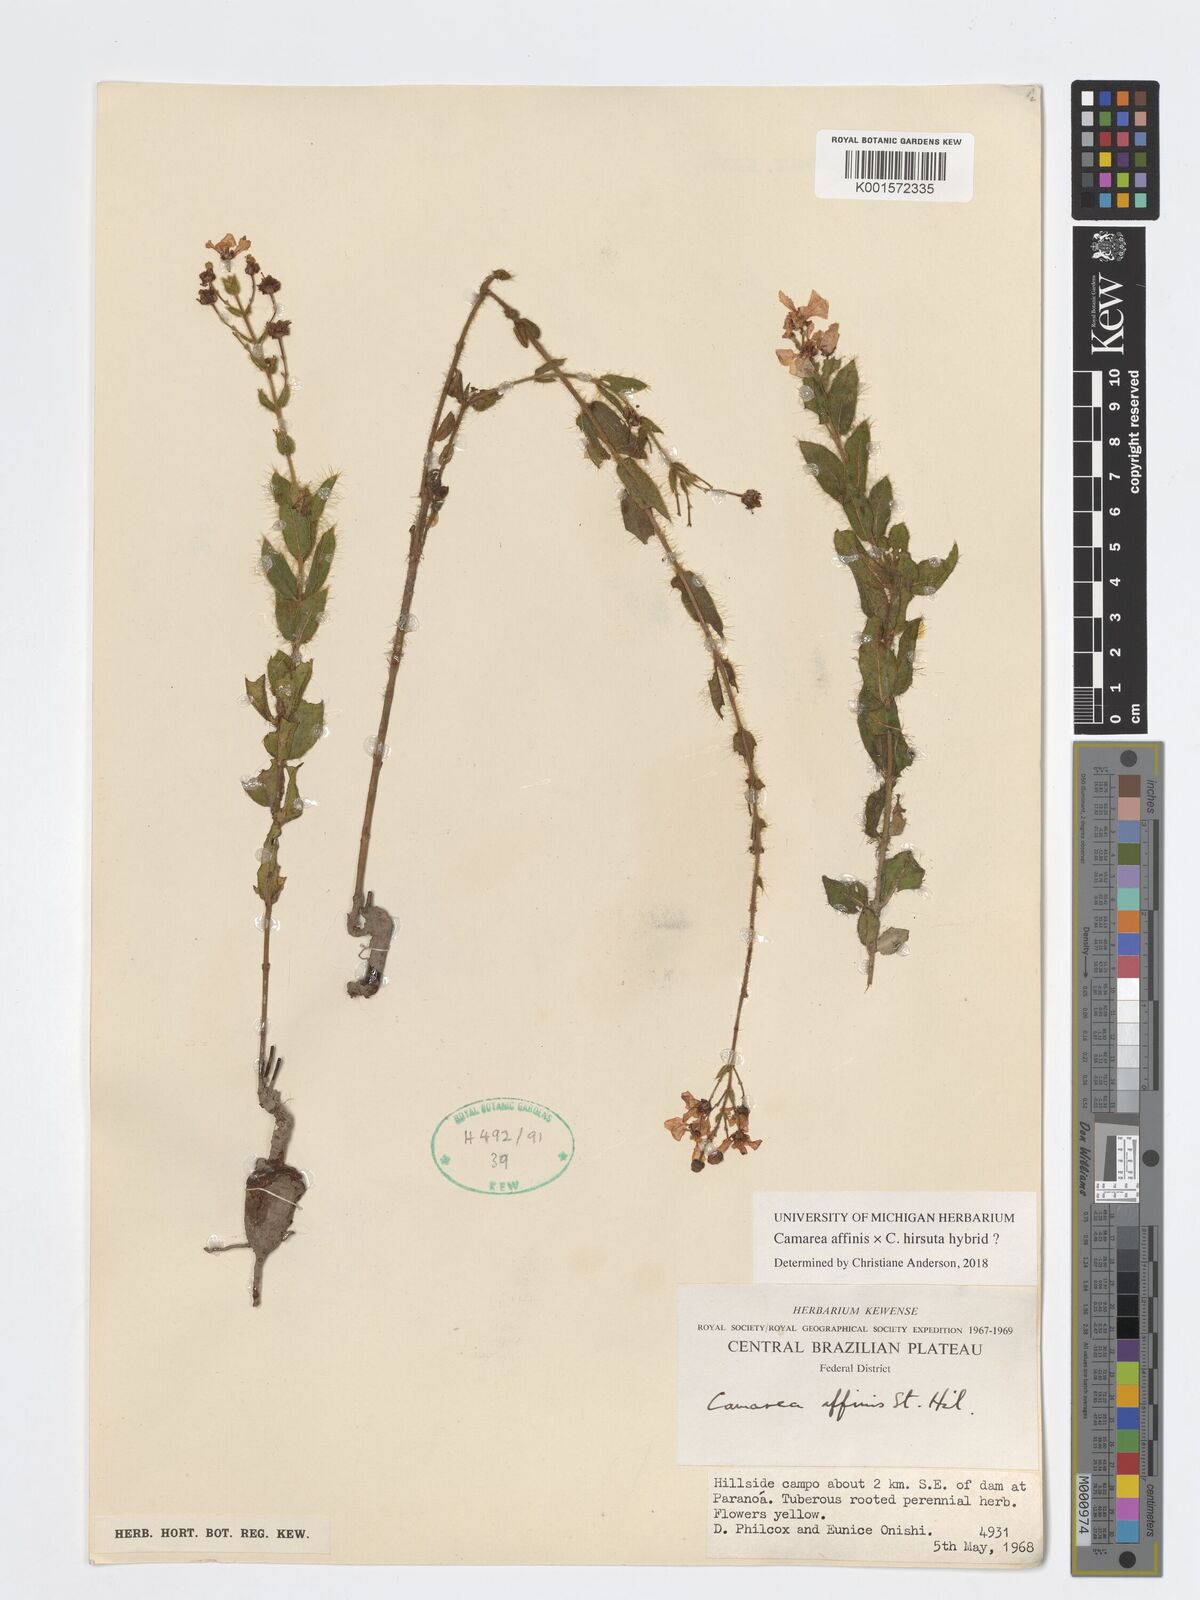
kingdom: Plantae
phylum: Tracheophyta
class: Magnoliopsida
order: Malpighiales
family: Malpighiaceae
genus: Camarea
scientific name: Camarea affinis
